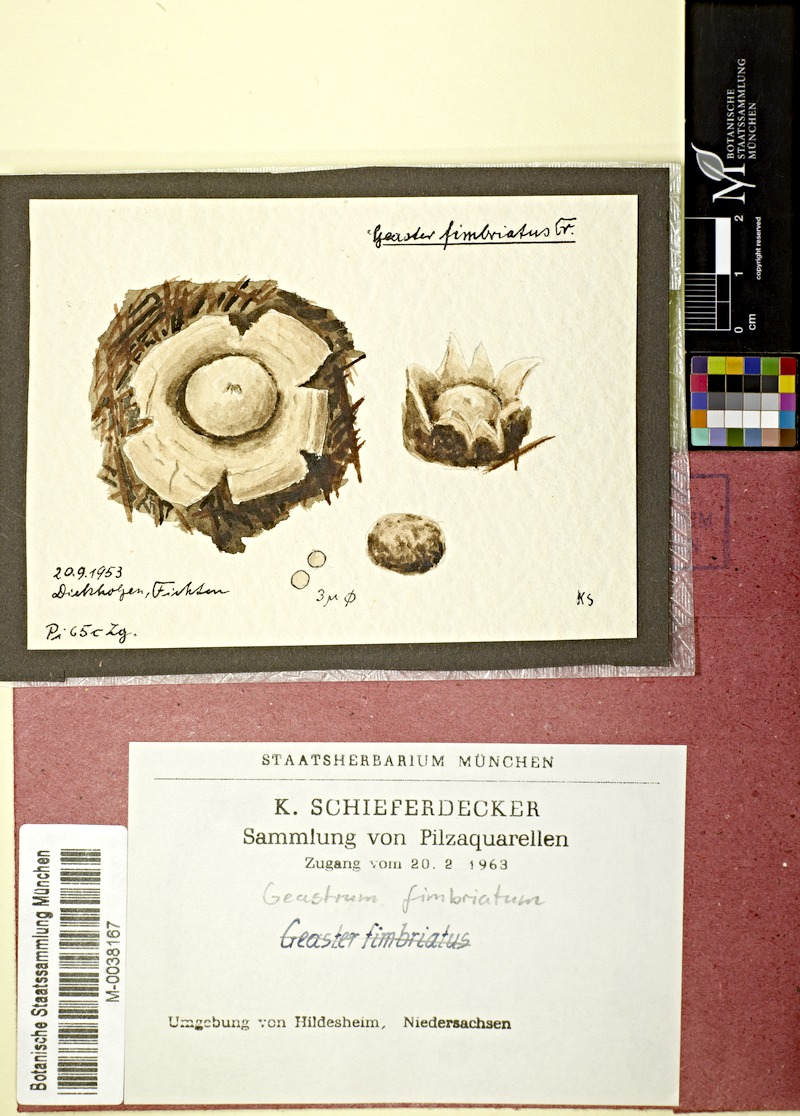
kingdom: Fungi
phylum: Basidiomycota
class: Agaricomycetes
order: Geastrales
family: Geastraceae
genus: Geastrum
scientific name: Geastrum fimbriatum
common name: Sessile earthstar
